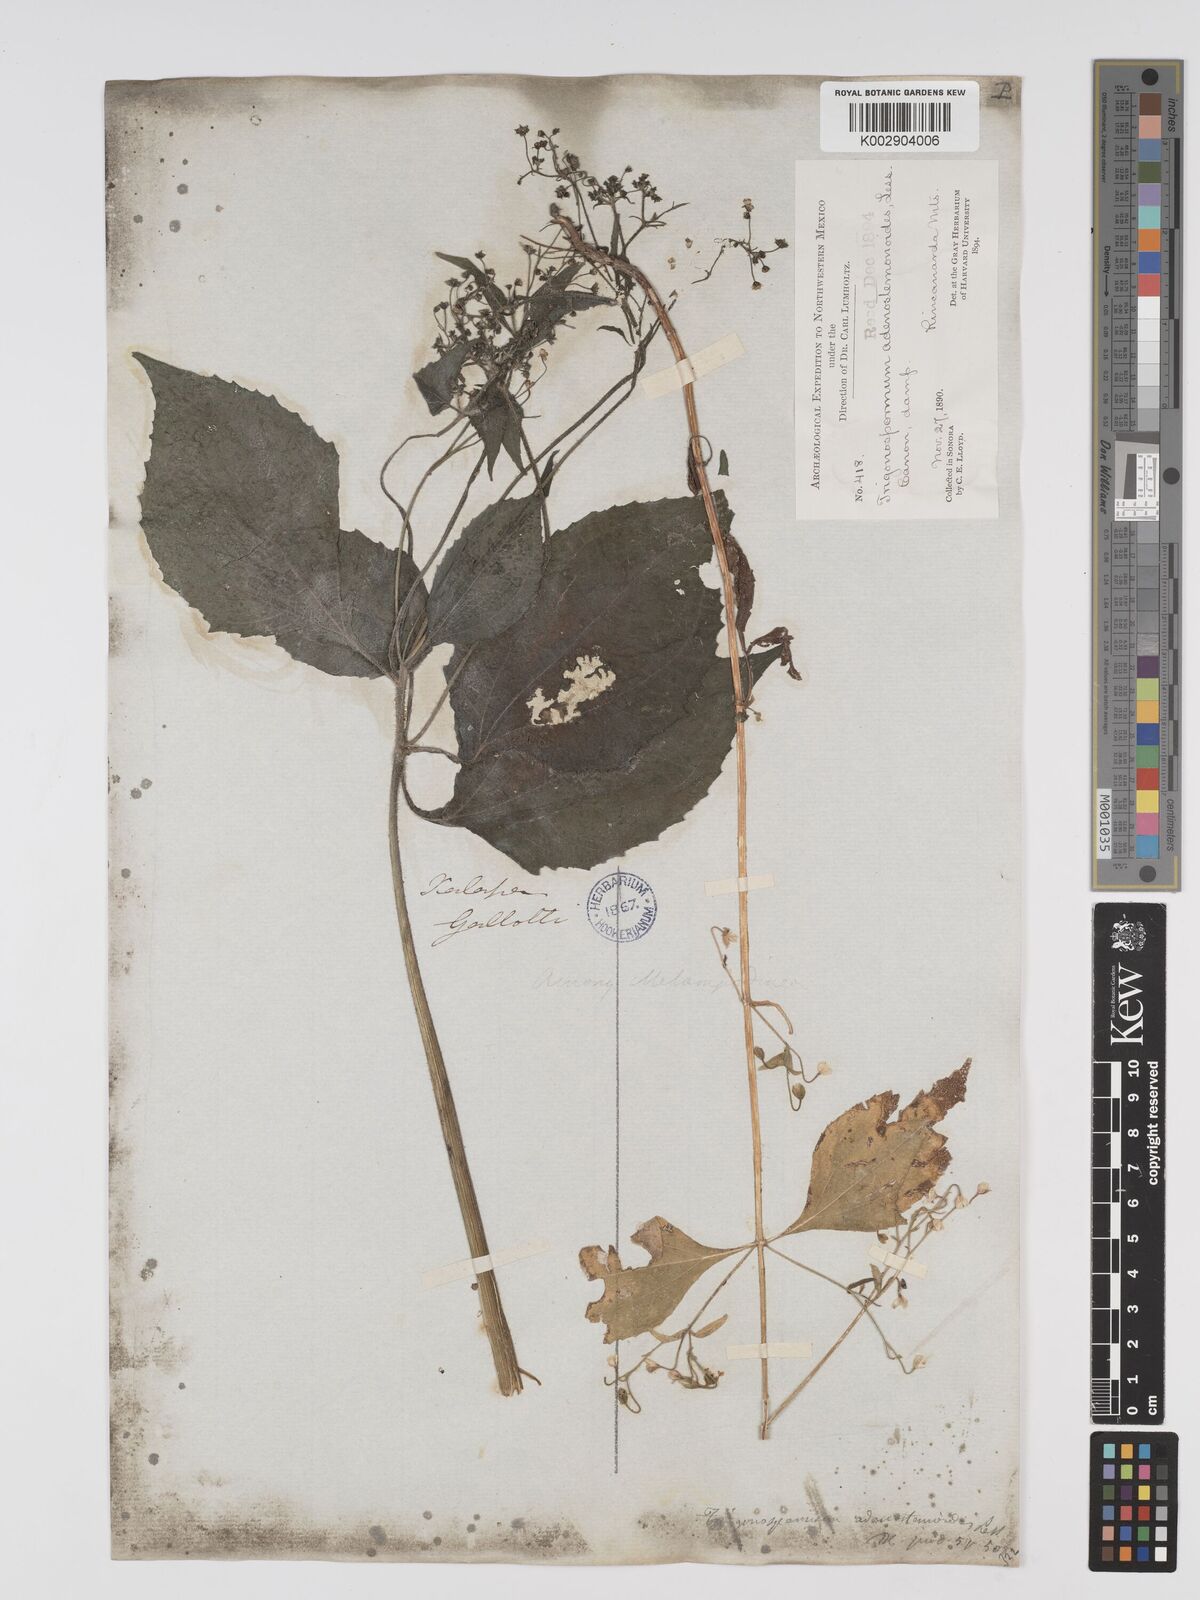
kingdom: Plantae
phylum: Tracheophyta
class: Magnoliopsida
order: Asterales
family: Asteraceae
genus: Trigonospermum
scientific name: Trigonospermum adenostemmoides
